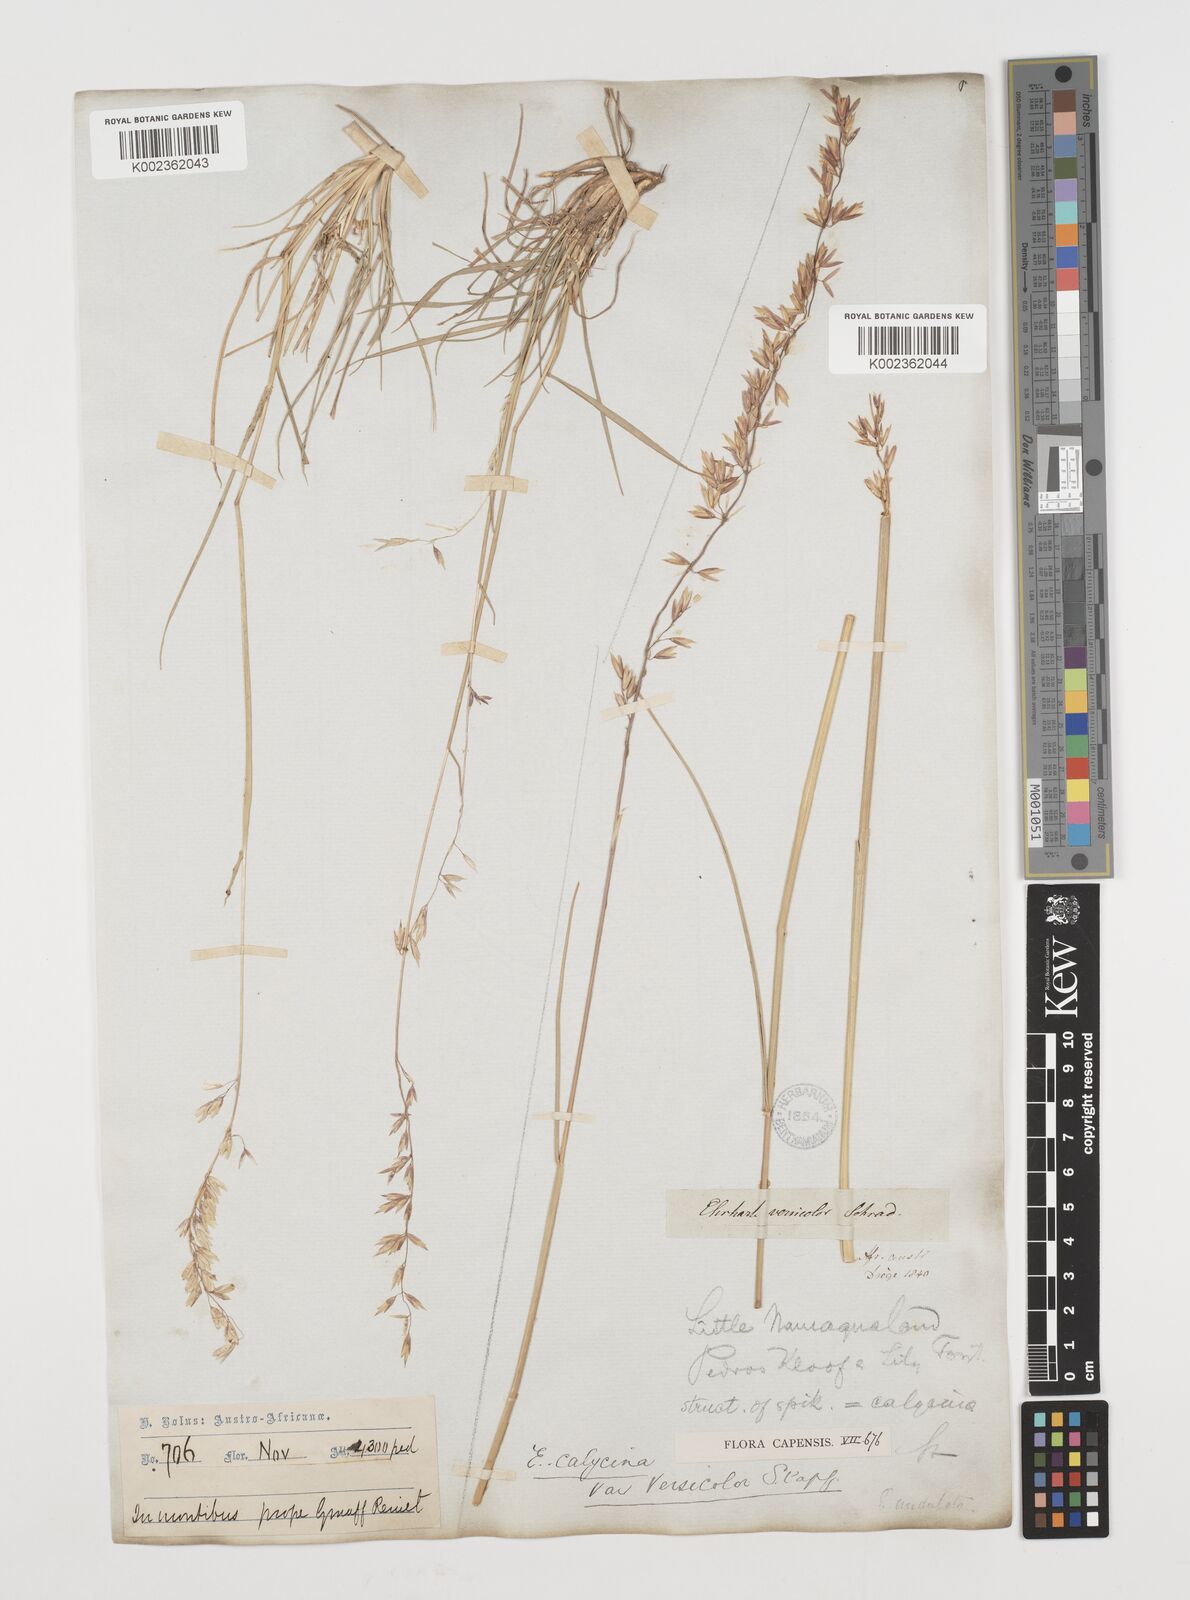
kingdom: Plantae
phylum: Tracheophyta
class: Liliopsida
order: Poales
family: Poaceae
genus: Ehrharta
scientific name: Ehrharta calycina
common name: Perennial veldtgrass
